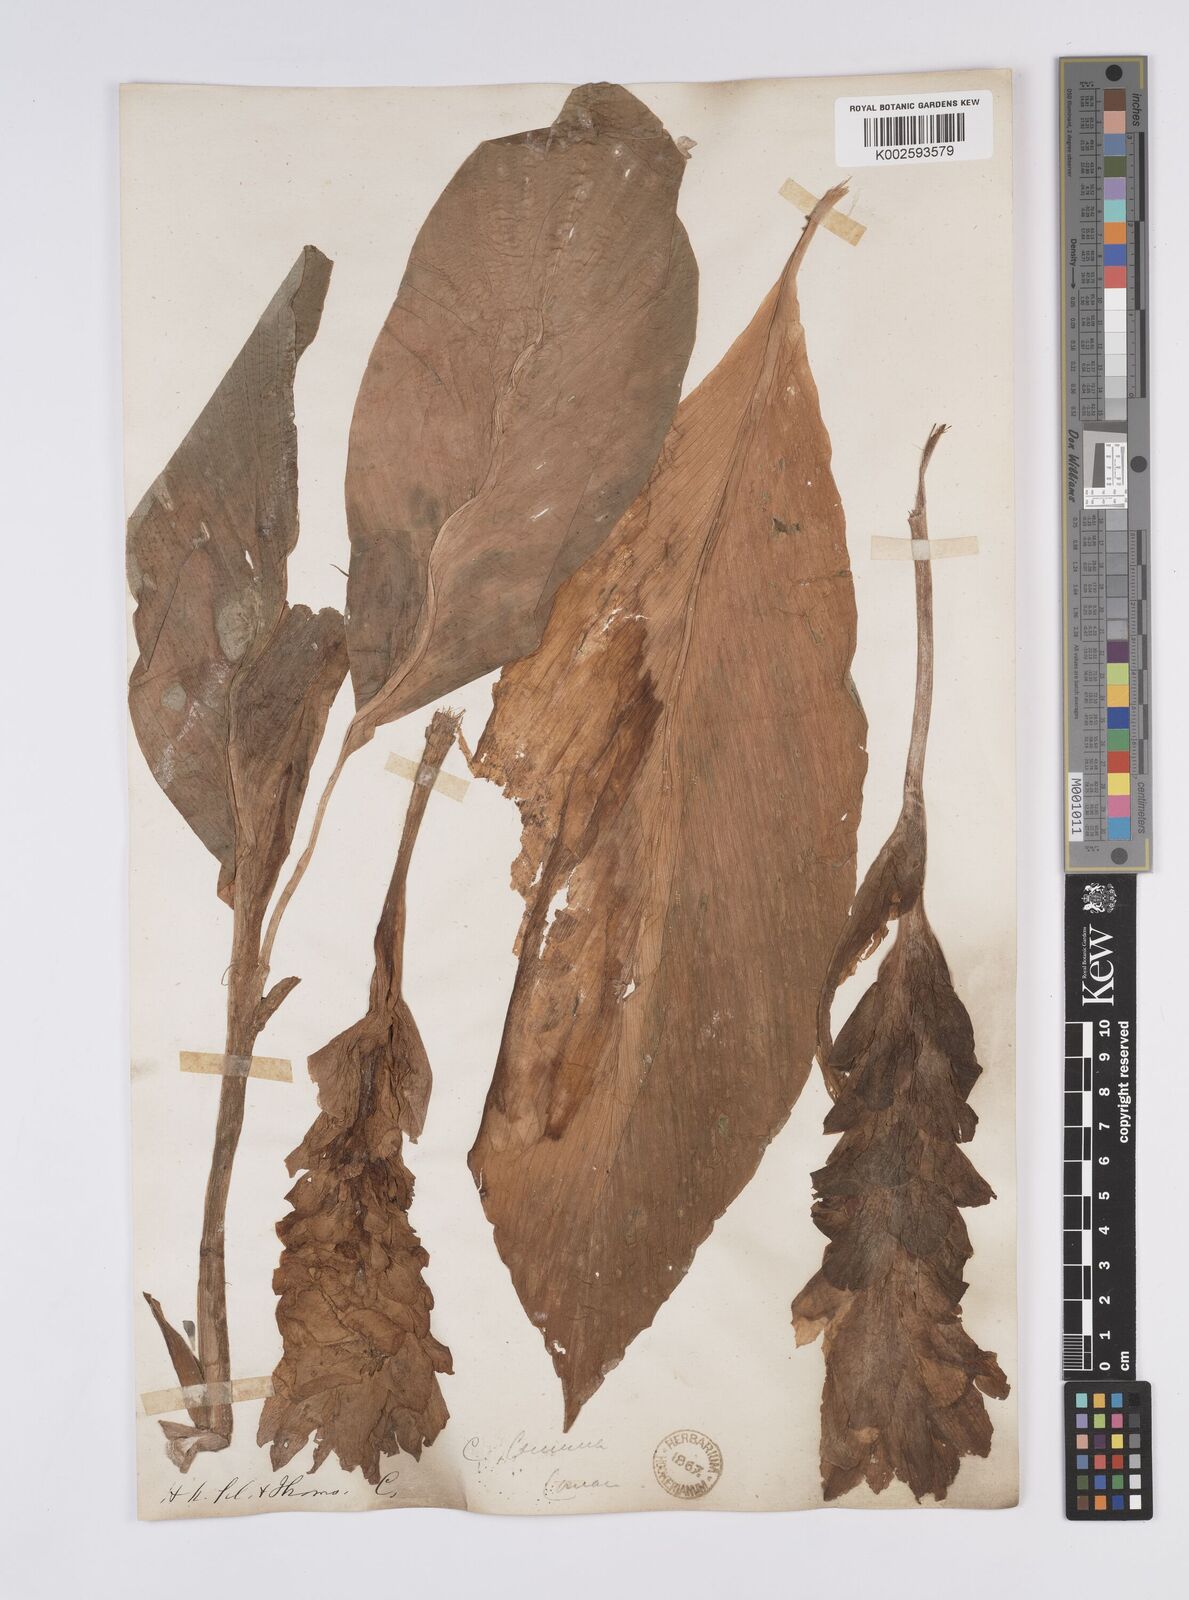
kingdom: Plantae
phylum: Tracheophyta
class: Liliopsida
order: Zingiberales
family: Zingiberaceae
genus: Curcuma
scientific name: Curcuma aromatica
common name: Wild turmeric
